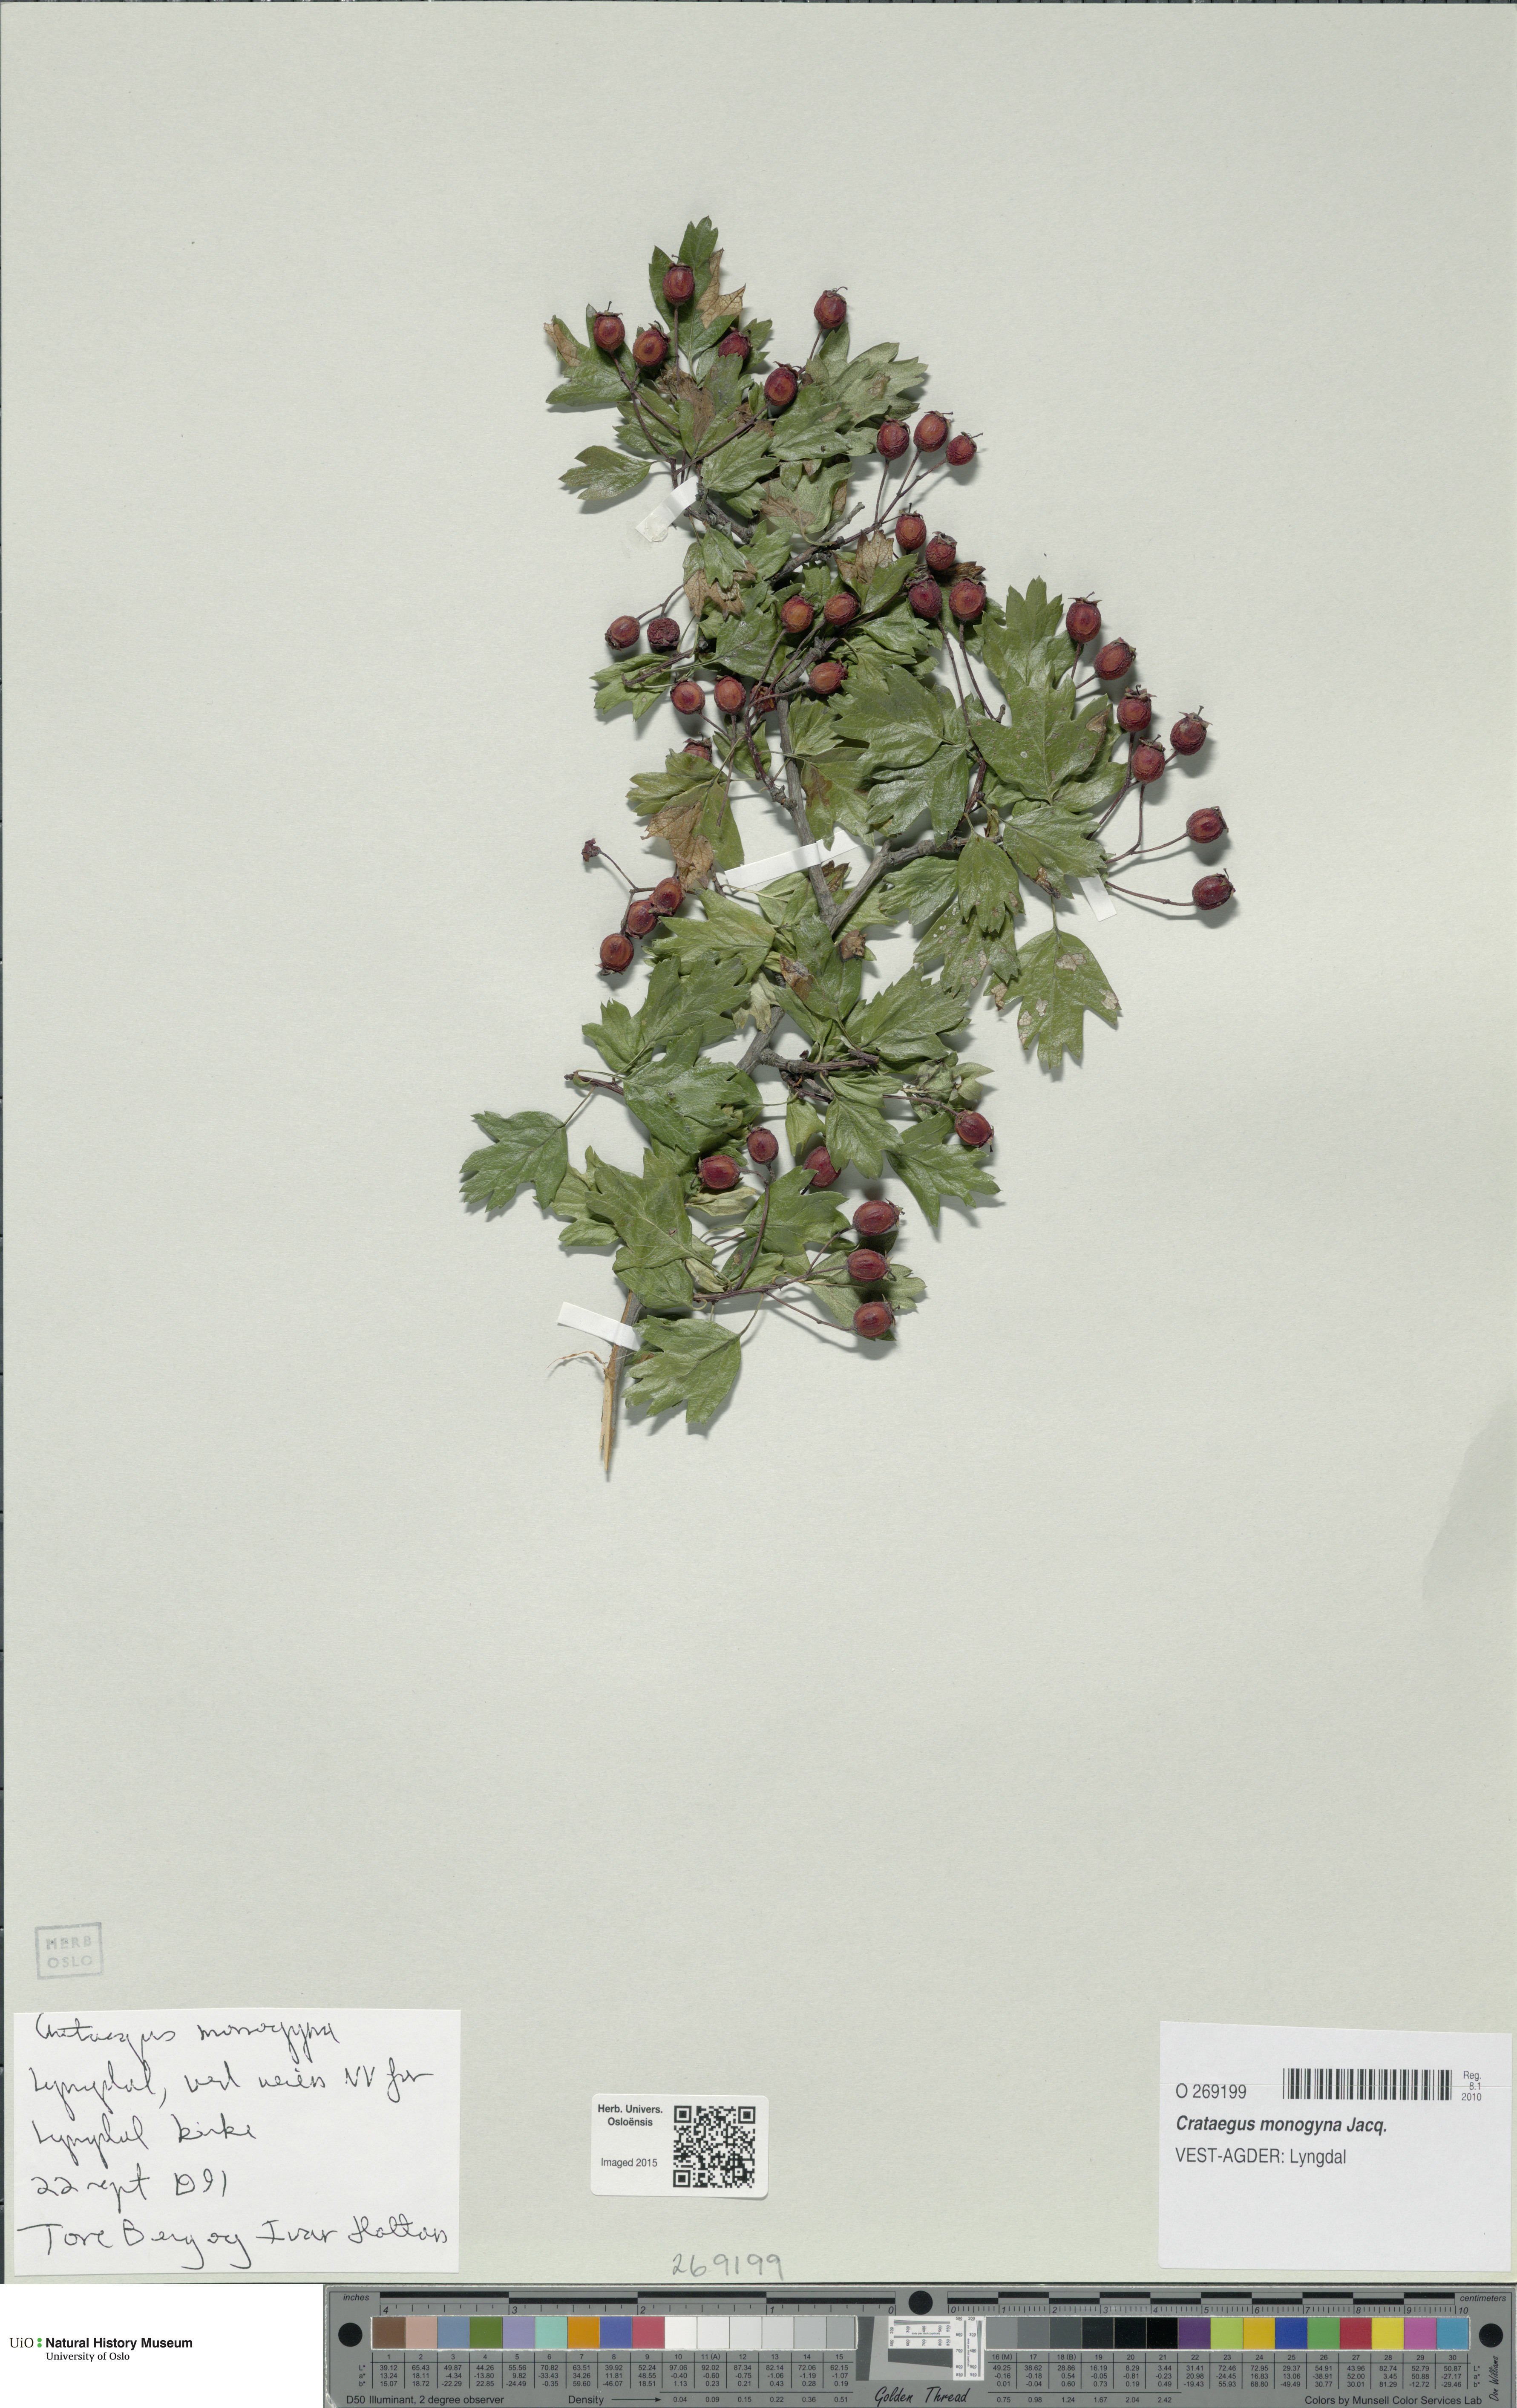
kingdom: Plantae
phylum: Tracheophyta
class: Magnoliopsida
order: Rosales
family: Rosaceae
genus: Crataegus
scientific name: Crataegus monogyna
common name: Hawthorn
